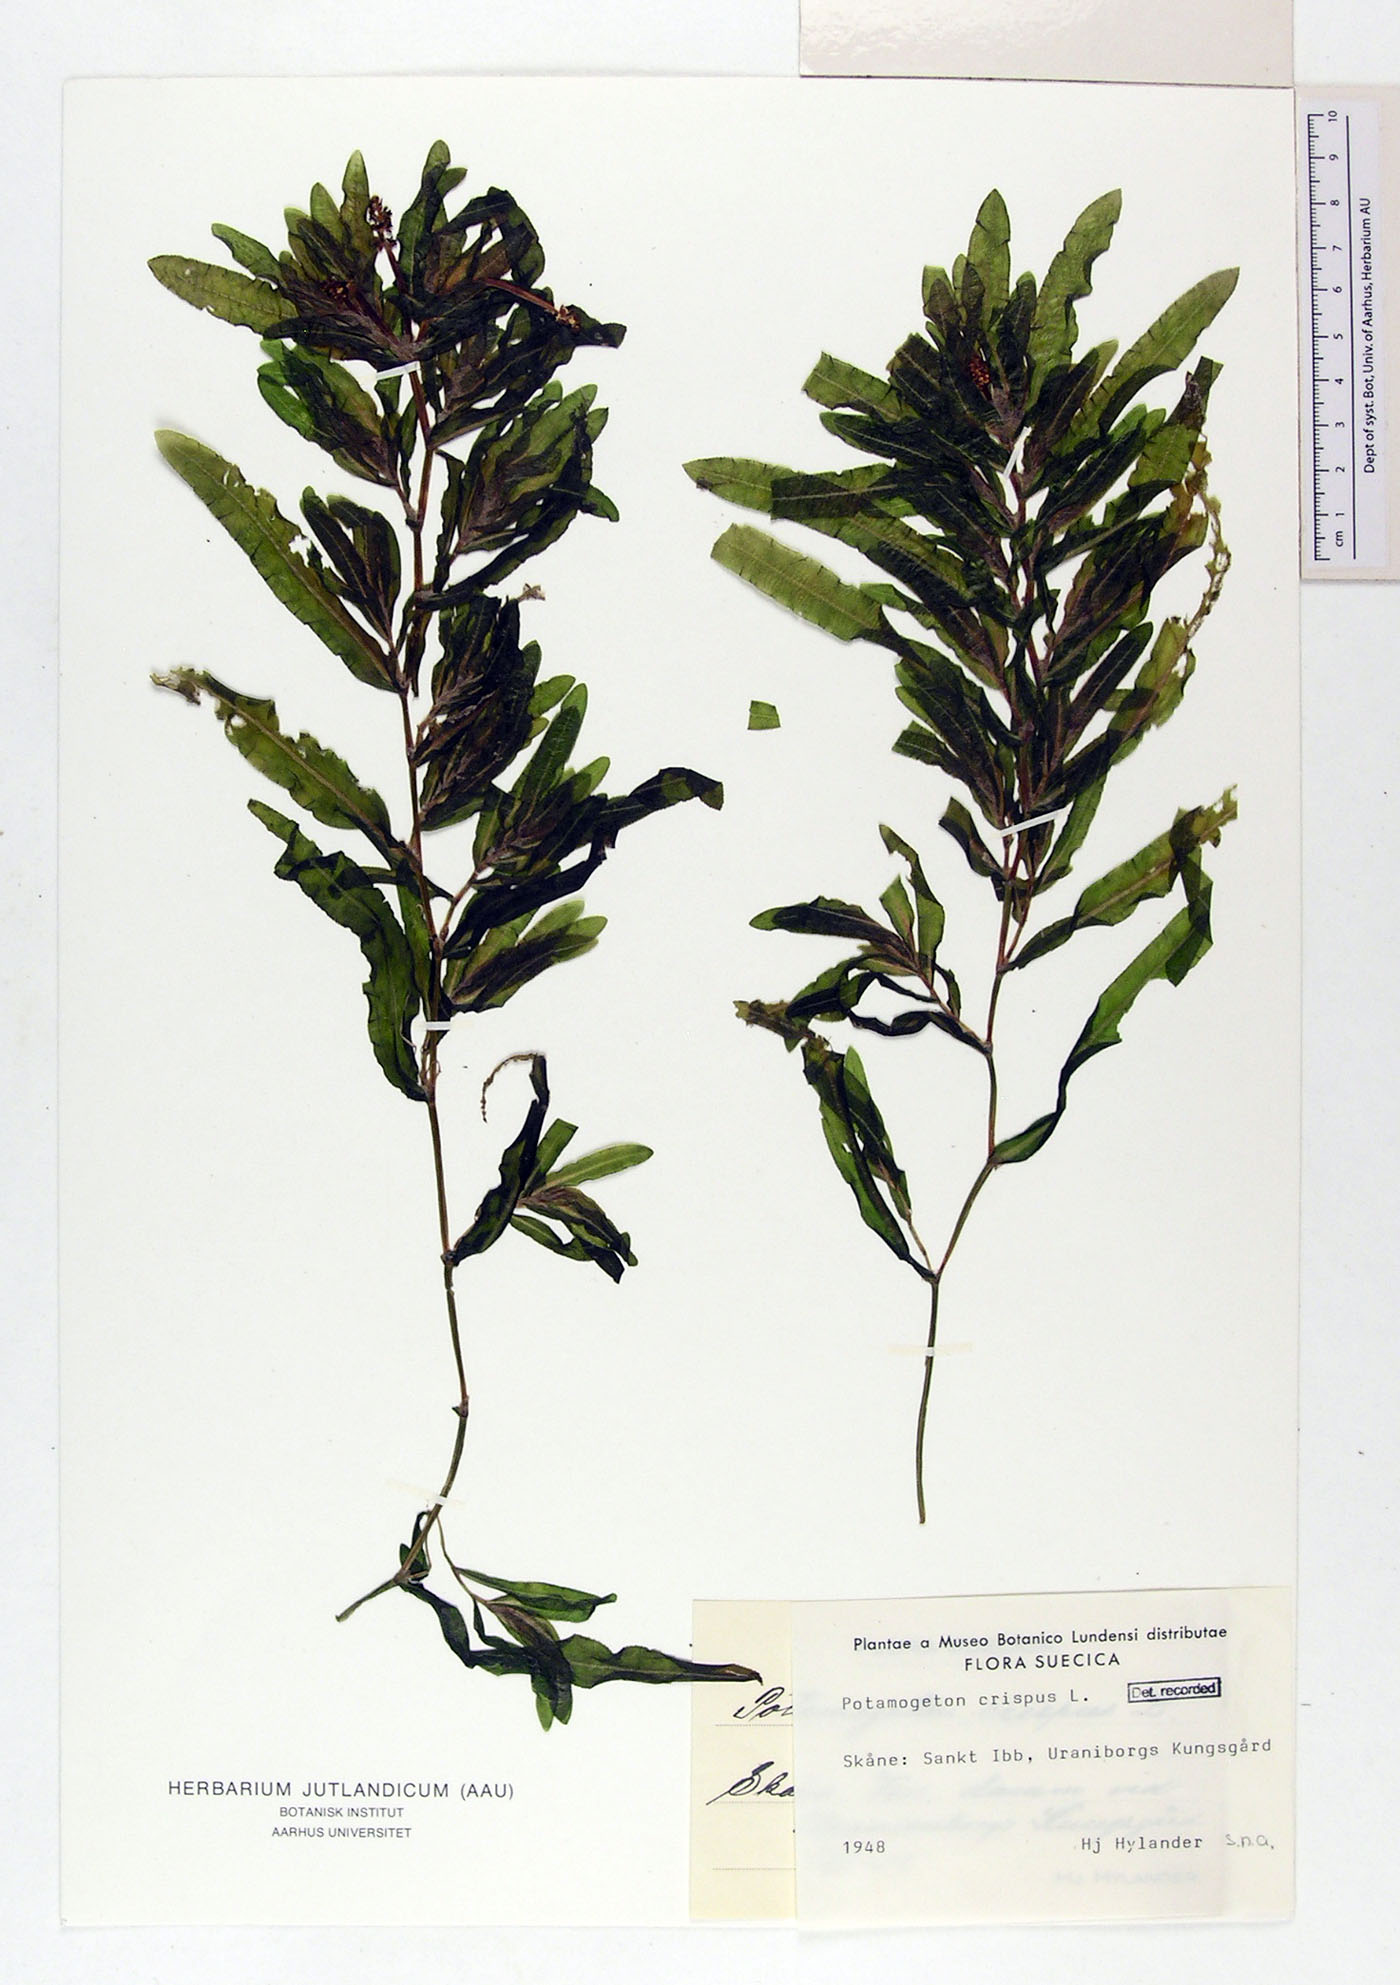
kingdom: Plantae
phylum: Tracheophyta
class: Liliopsida
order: Alismatales
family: Potamogetonaceae
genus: Potamogeton
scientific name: Potamogeton crispus
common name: Curled pondweed
